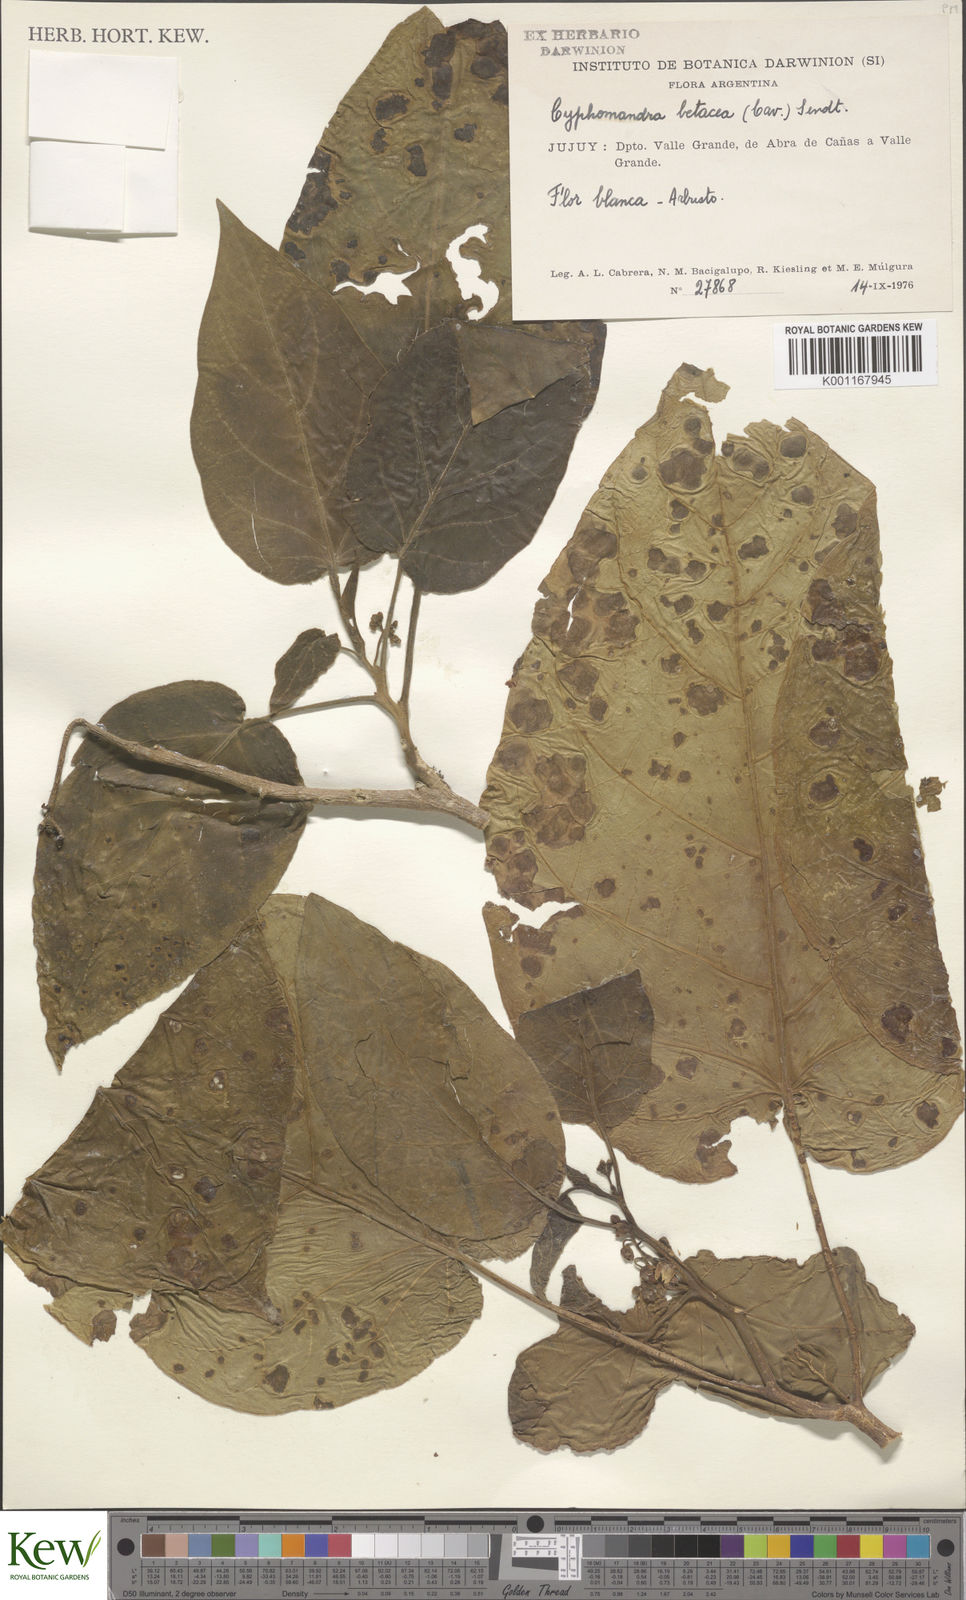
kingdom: Plantae
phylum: Tracheophyta
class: Magnoliopsida
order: Solanales
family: Solanaceae
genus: Solanum
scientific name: Solanum betaceum
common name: Tamarillo
